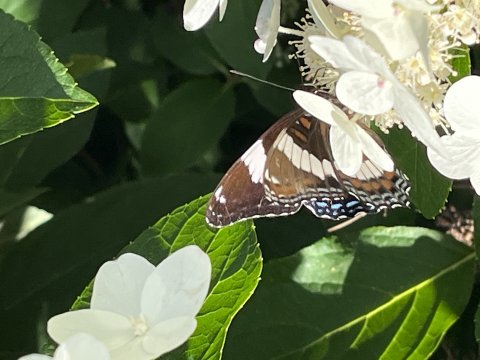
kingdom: Animalia
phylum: Arthropoda
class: Insecta
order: Lepidoptera
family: Nymphalidae
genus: Limenitis
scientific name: Limenitis arthemis
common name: Red-spotted Admiral
